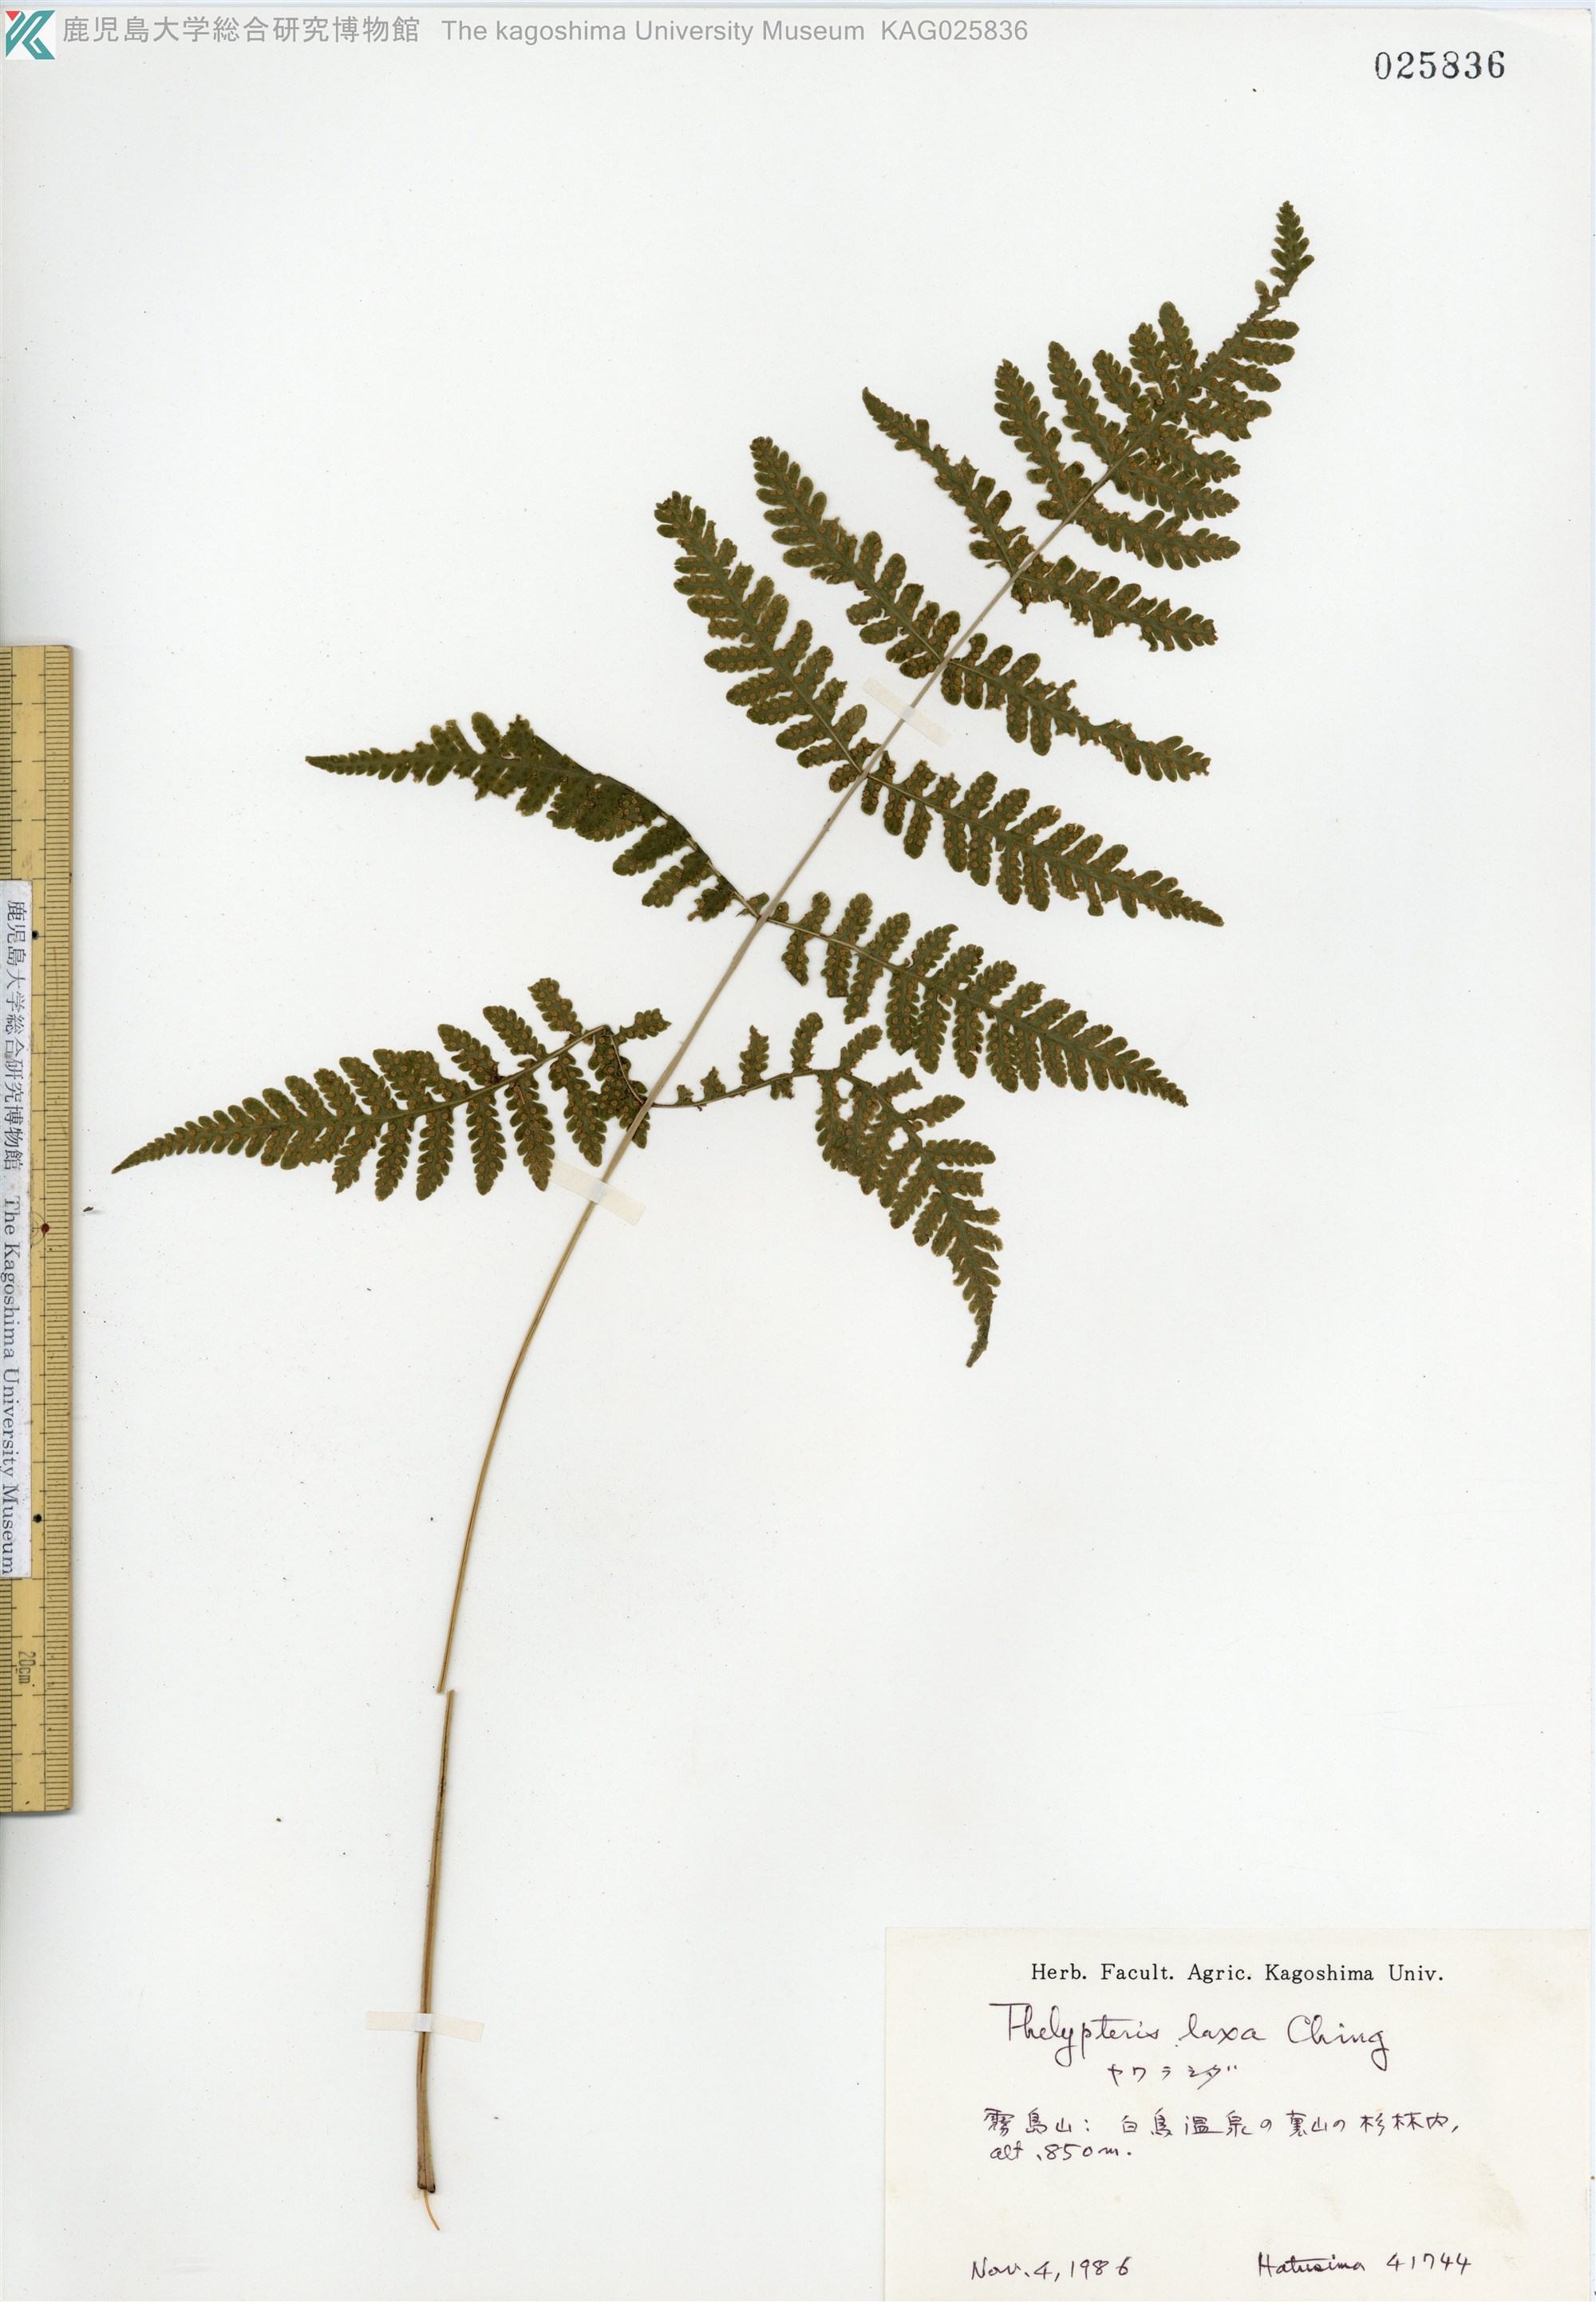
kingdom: Plantae
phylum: Tracheophyta
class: Polypodiopsida
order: Polypodiales
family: Thelypteridaceae
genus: Metathelypteris
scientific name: Metathelypteris laxa
